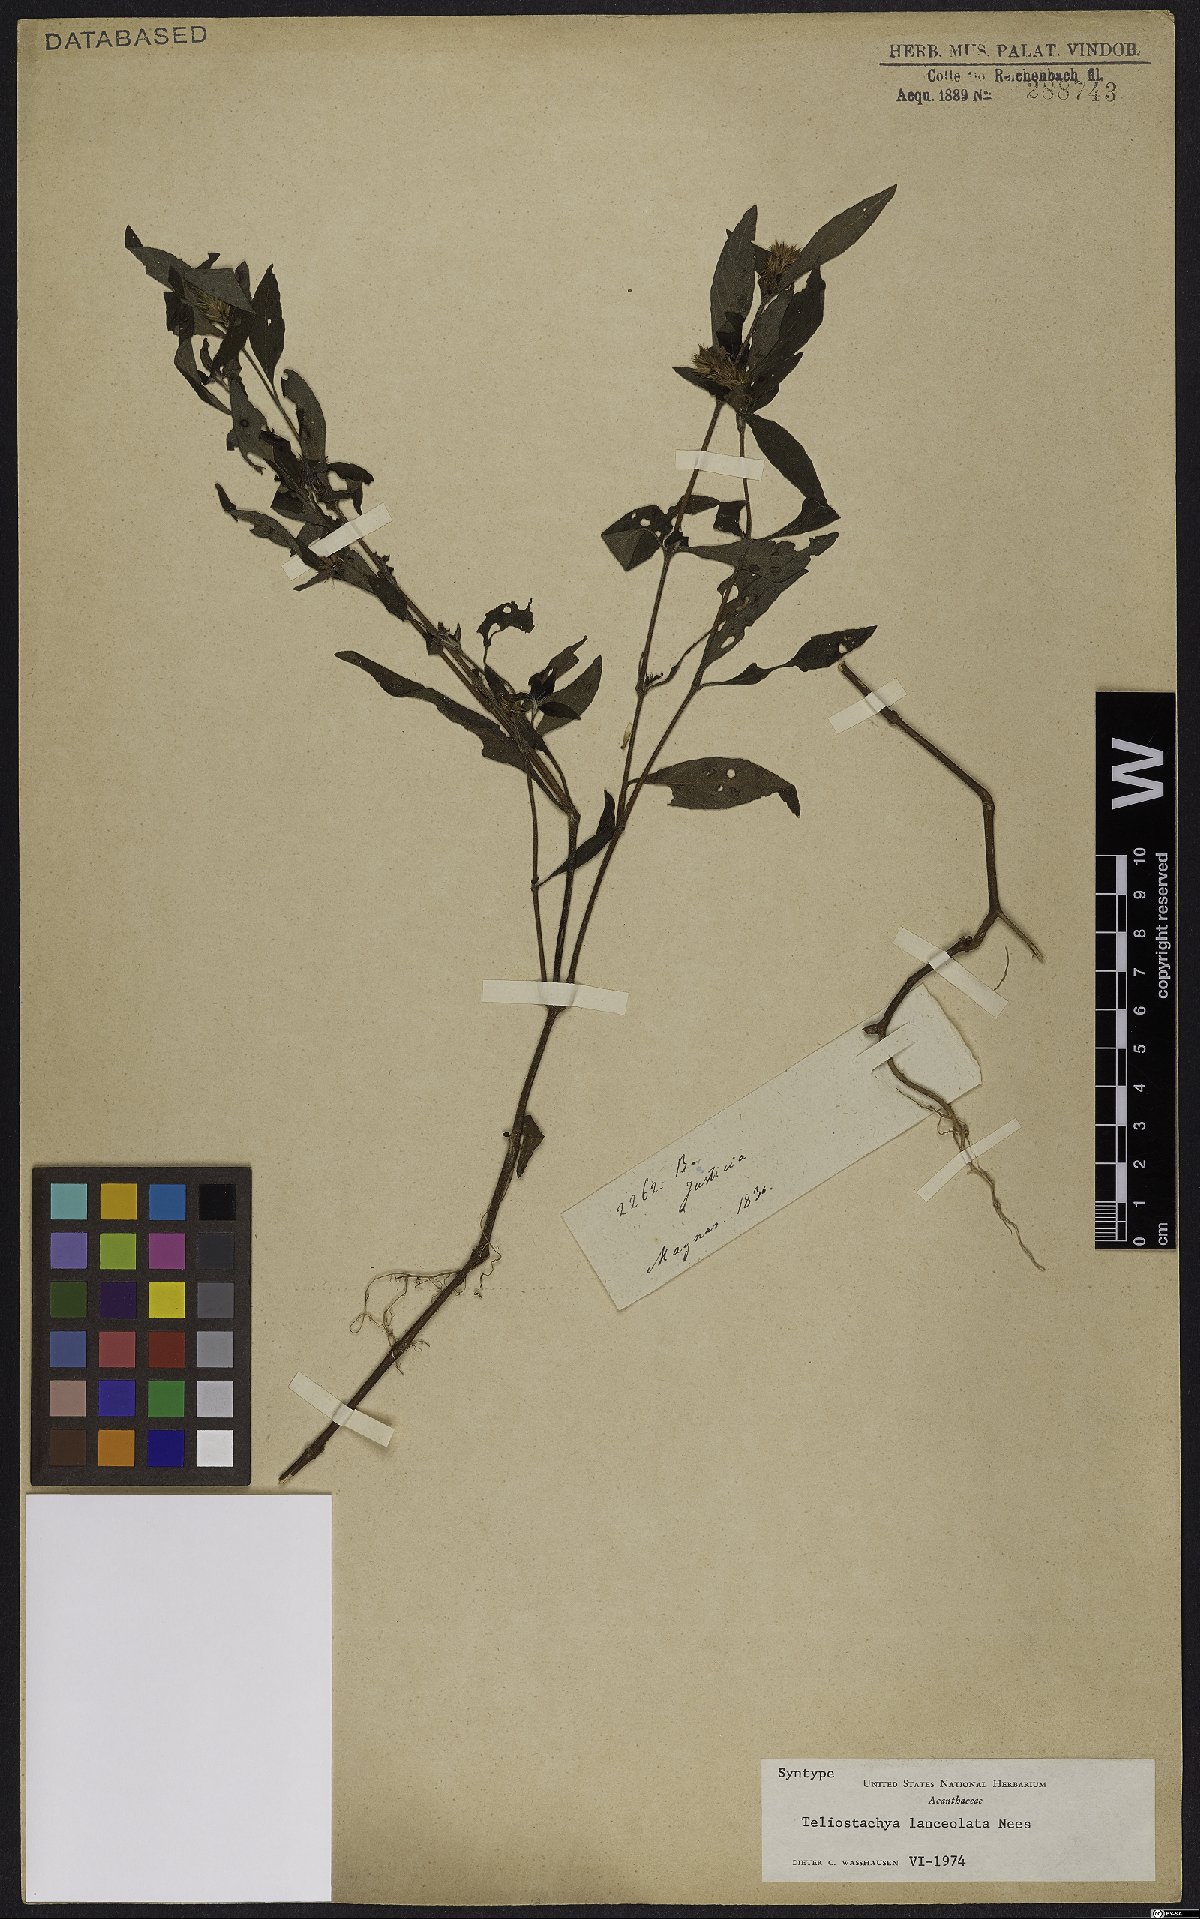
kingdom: Plantae
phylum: Tracheophyta
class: Magnoliopsida
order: Lamiales
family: Acanthaceae
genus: Lepidagathis
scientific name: Lepidagathis alopecuroidea
